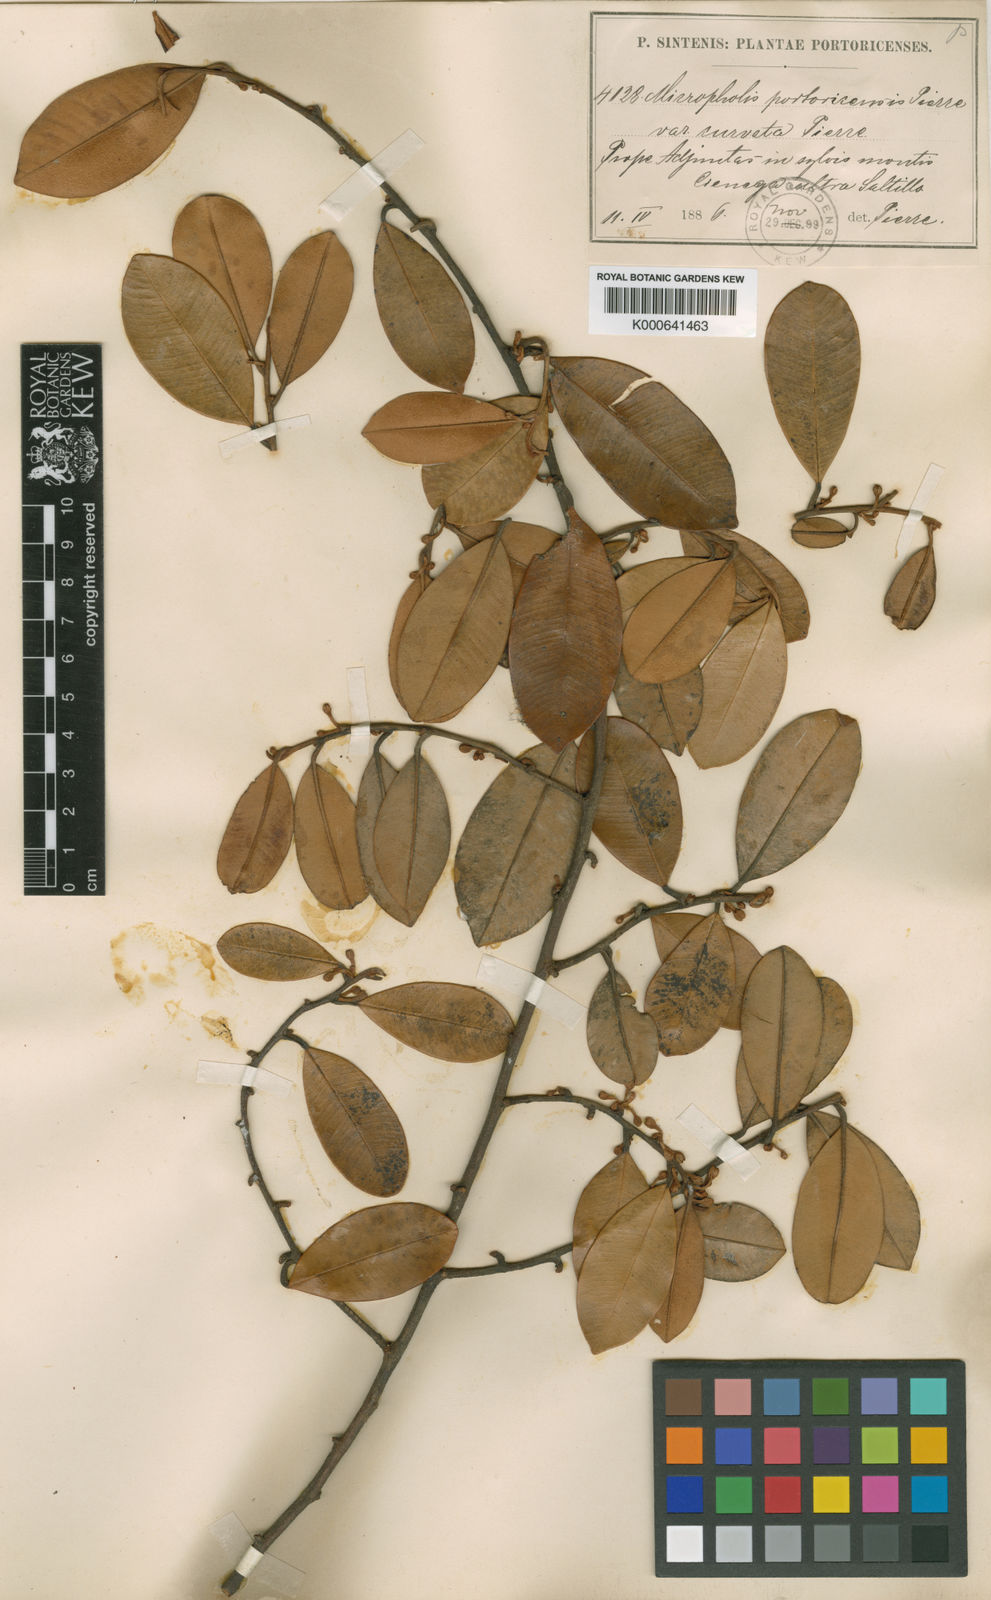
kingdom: Plantae
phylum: Tracheophyta
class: Magnoliopsida
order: Ericales
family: Sapotaceae
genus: Micropholis
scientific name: Micropholis guyanensis
